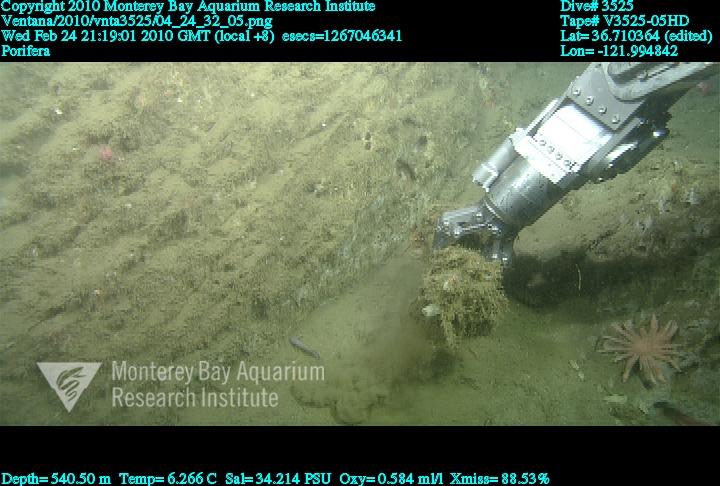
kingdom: Animalia
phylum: Porifera
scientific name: Porifera
